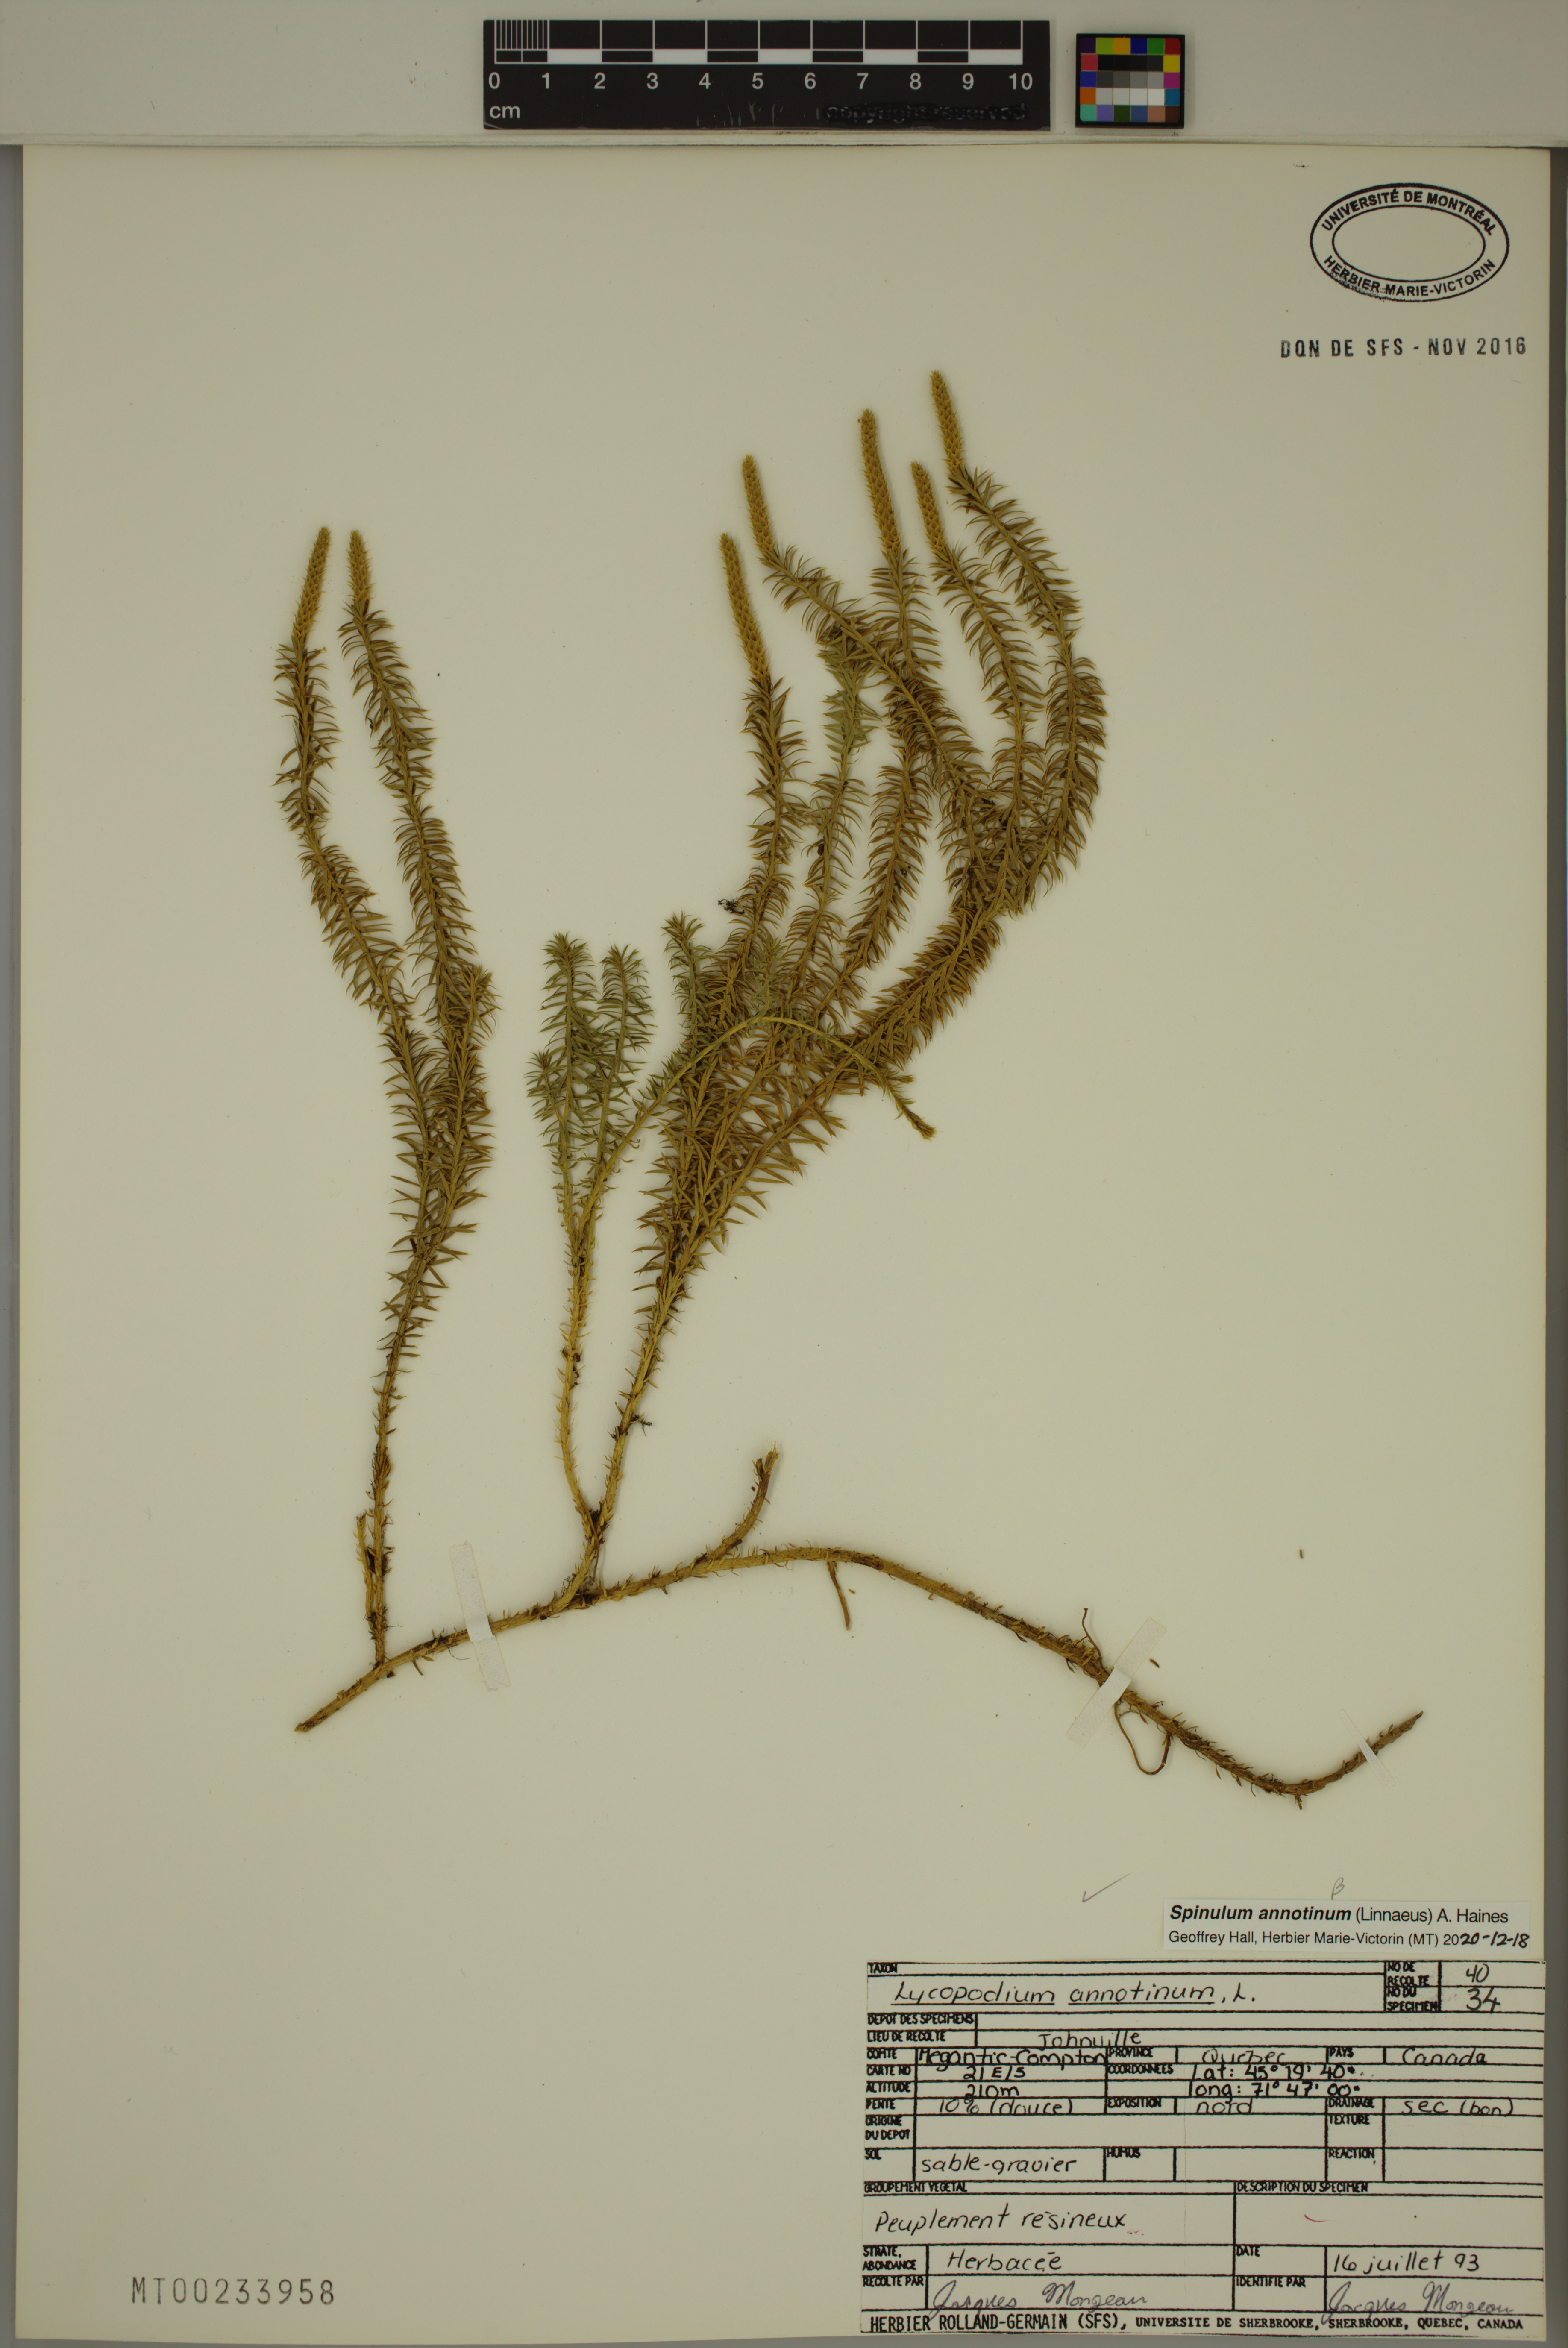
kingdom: Plantae
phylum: Tracheophyta
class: Lycopodiopsida
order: Lycopodiales
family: Lycopodiaceae
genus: Spinulum
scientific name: Spinulum annotinum
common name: Interrupted club-moss
